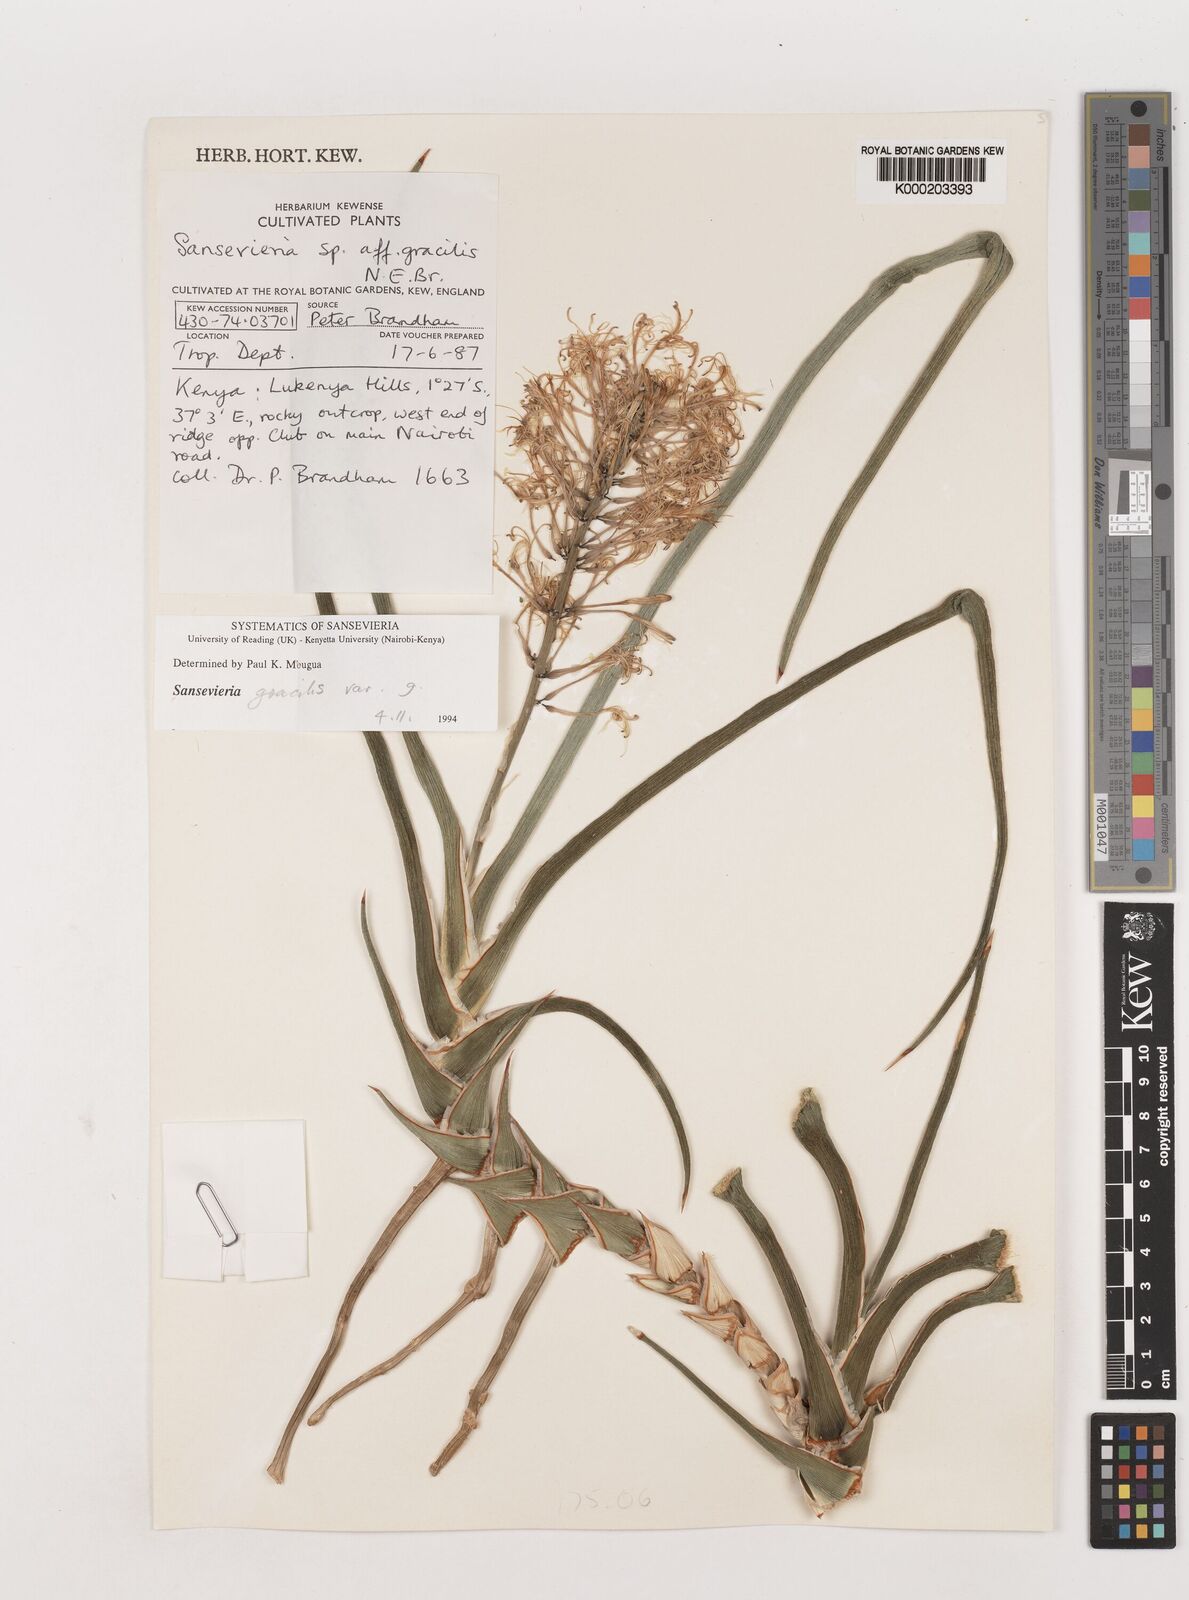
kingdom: Plantae
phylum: Tracheophyta
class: Liliopsida
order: Asparagales
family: Asparagaceae
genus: Dracaena
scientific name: Dracaena serpenta
